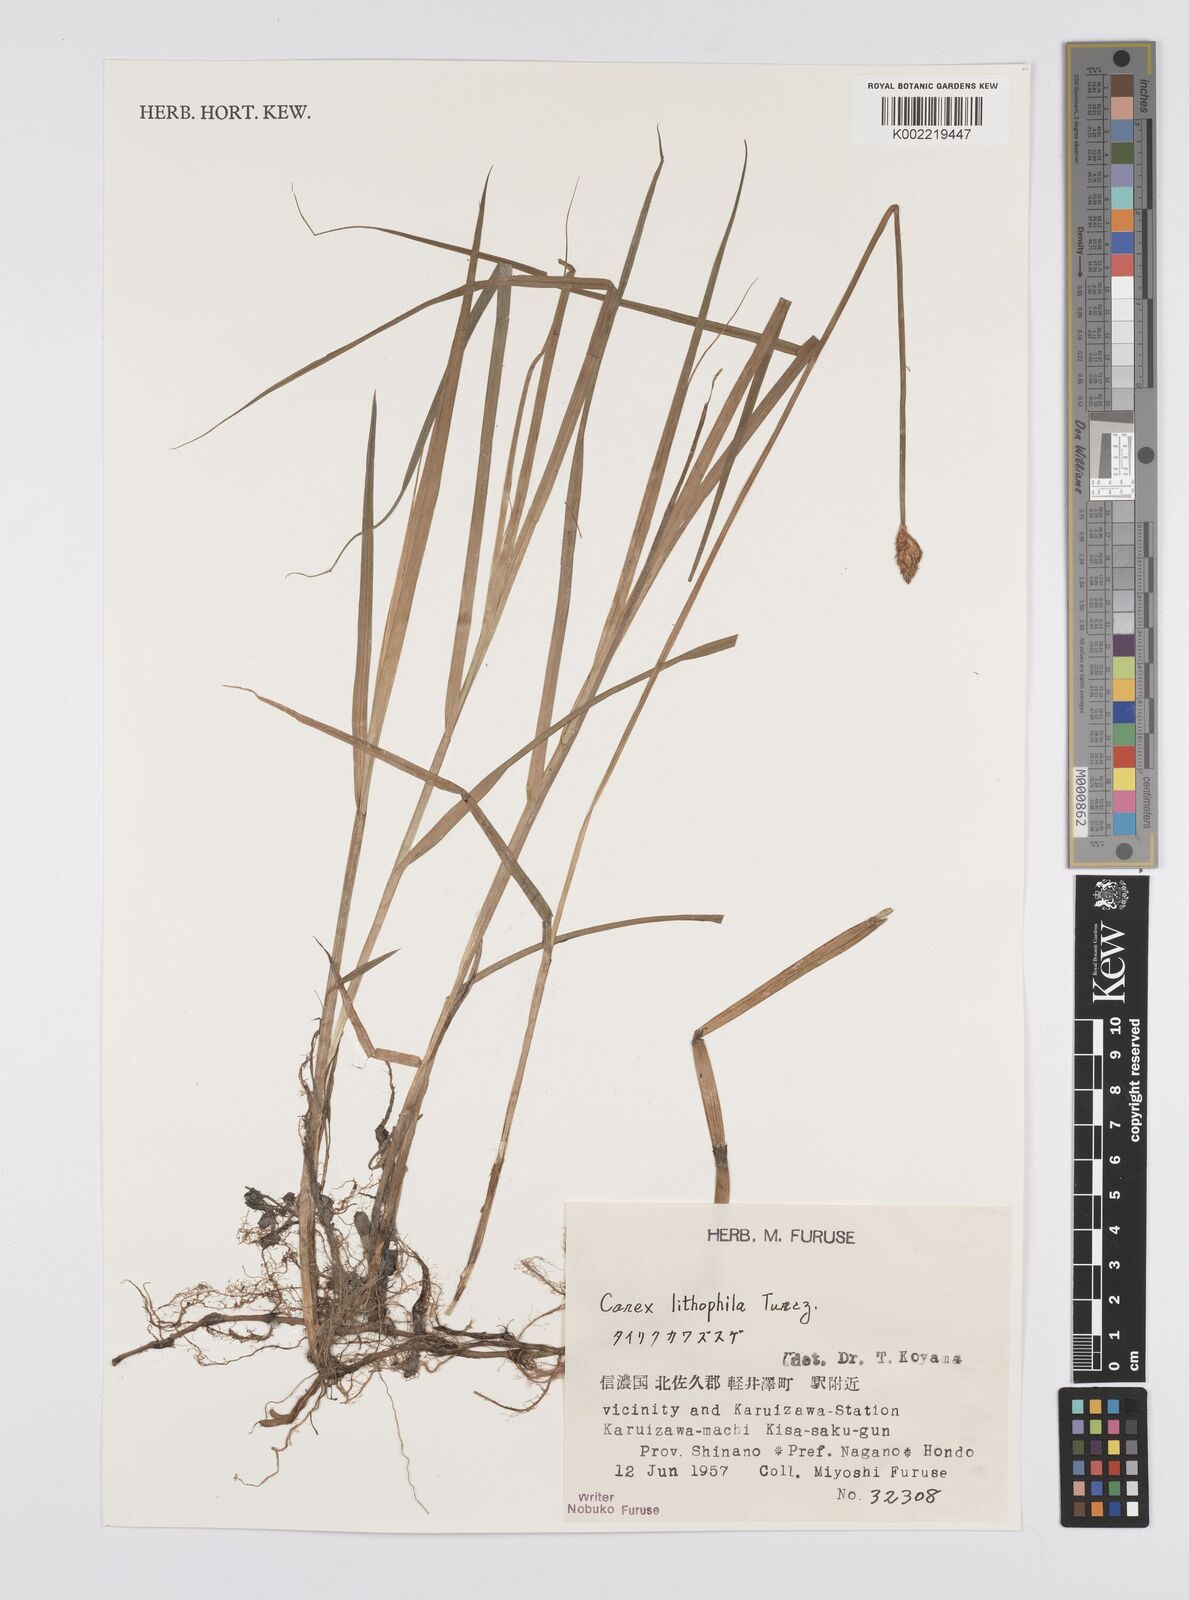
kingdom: Plantae
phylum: Tracheophyta
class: Liliopsida
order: Poales
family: Cyperaceae
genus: Carex
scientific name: Carex disticha
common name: Brown sedge
